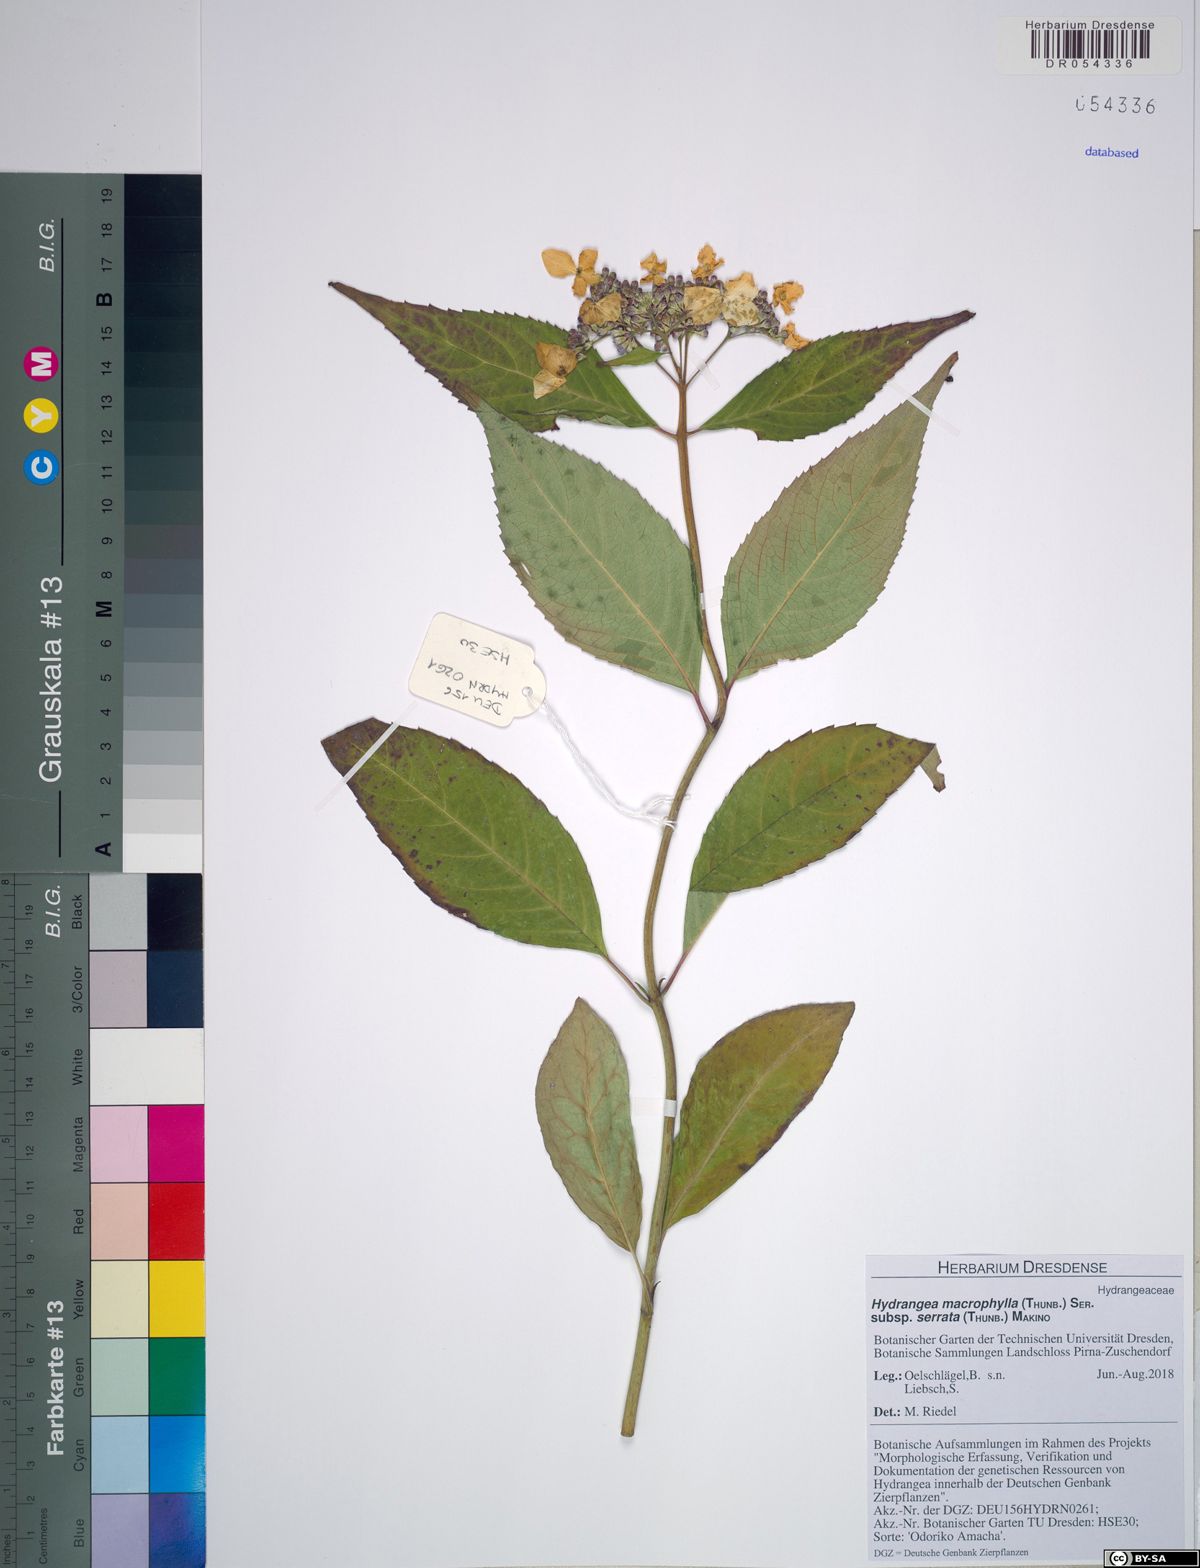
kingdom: Plantae
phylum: Tracheophyta
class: Magnoliopsida
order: Cornales
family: Hydrangeaceae
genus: Hydrangea
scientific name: Hydrangea serrata
